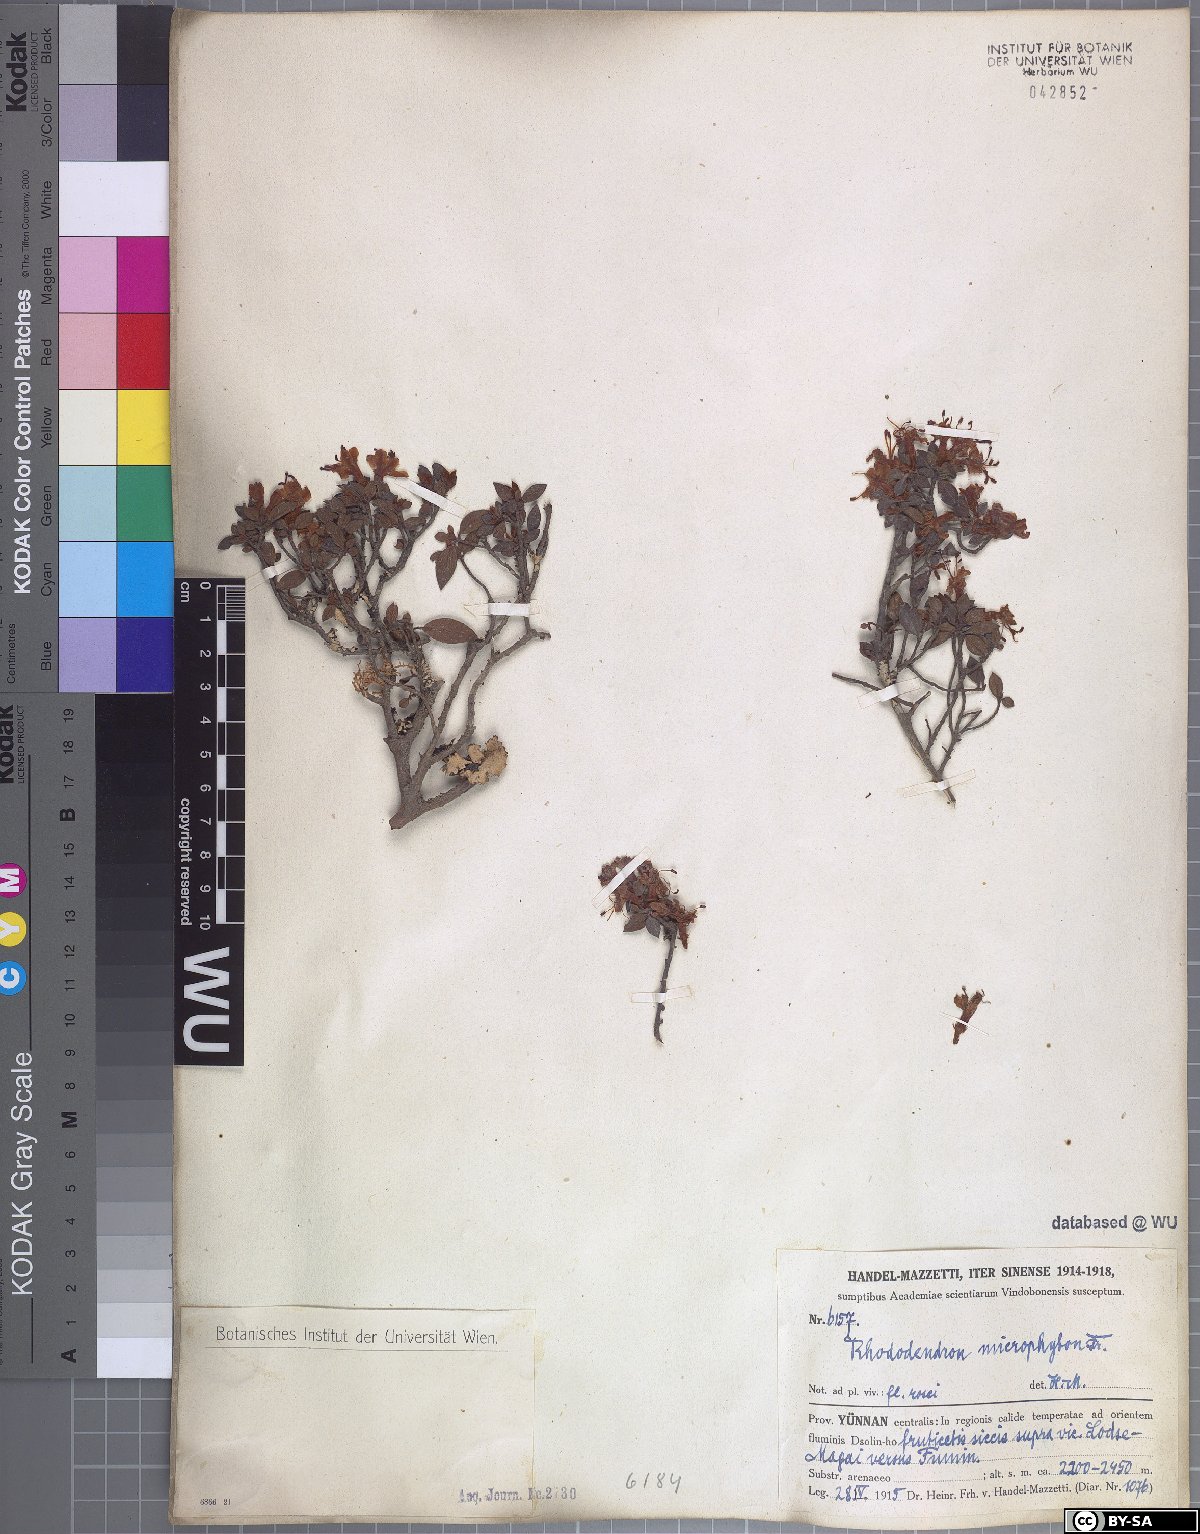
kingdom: Plantae
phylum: Tracheophyta
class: Magnoliopsida
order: Ericales
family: Ericaceae
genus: Rhododendron
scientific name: Rhododendron microphyton
